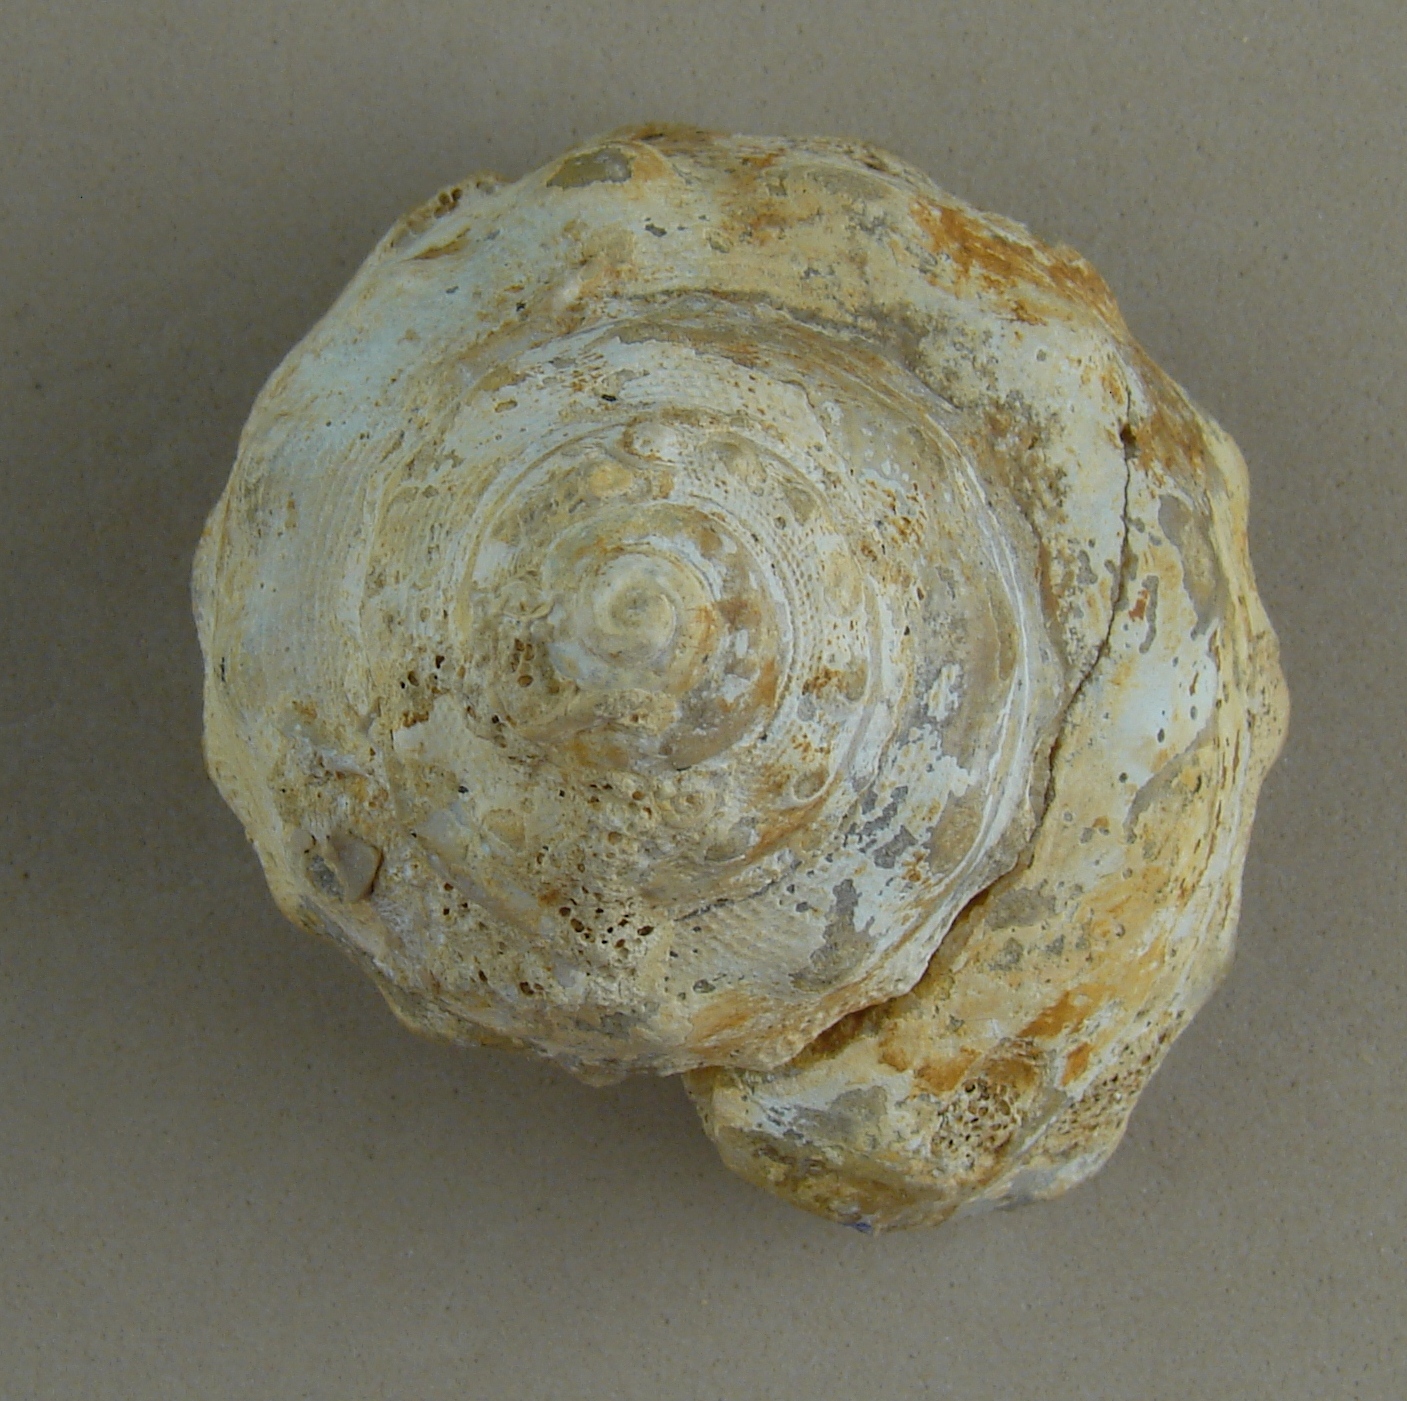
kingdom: Animalia
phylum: Mollusca
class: Gastropoda
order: Pleurotomariida
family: Pleurotomariidae
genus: Pleurotomaria
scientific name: Pleurotomaria
